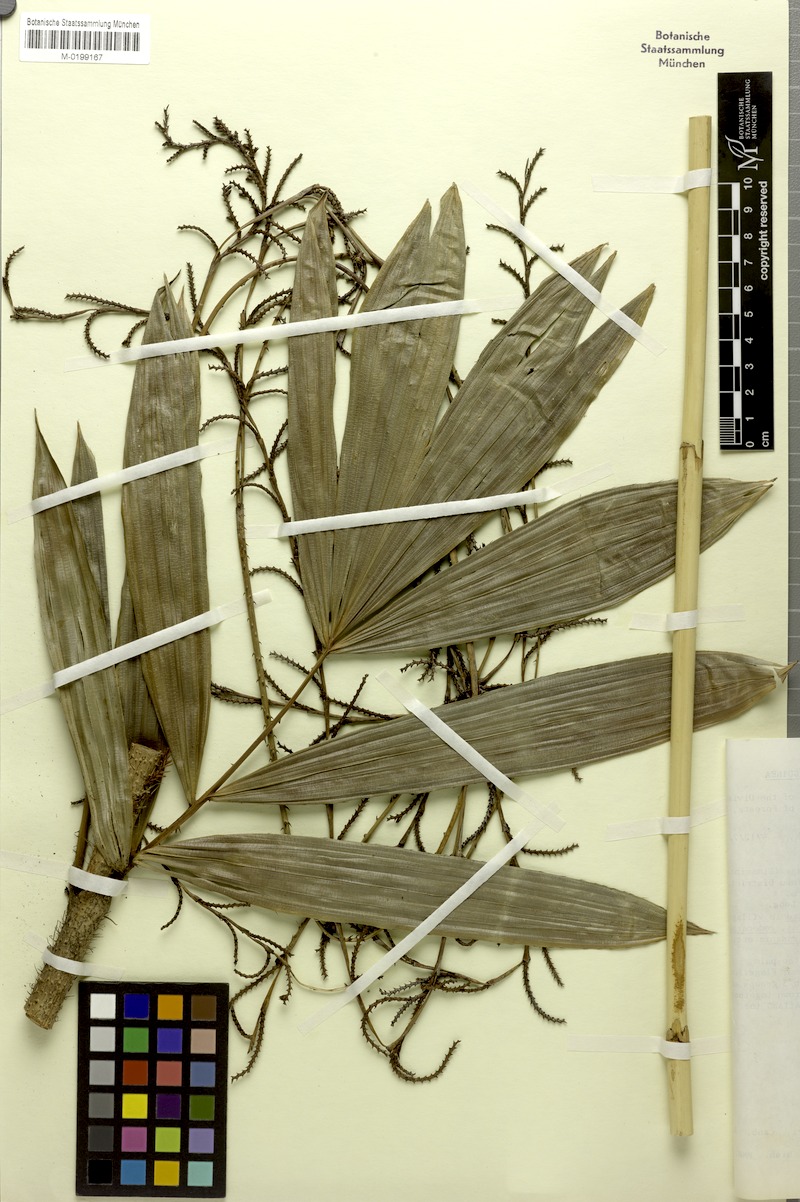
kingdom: Plantae
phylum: Tracheophyta
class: Liliopsida
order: Arecales
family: Arecaceae
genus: Calamus
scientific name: Calamus
